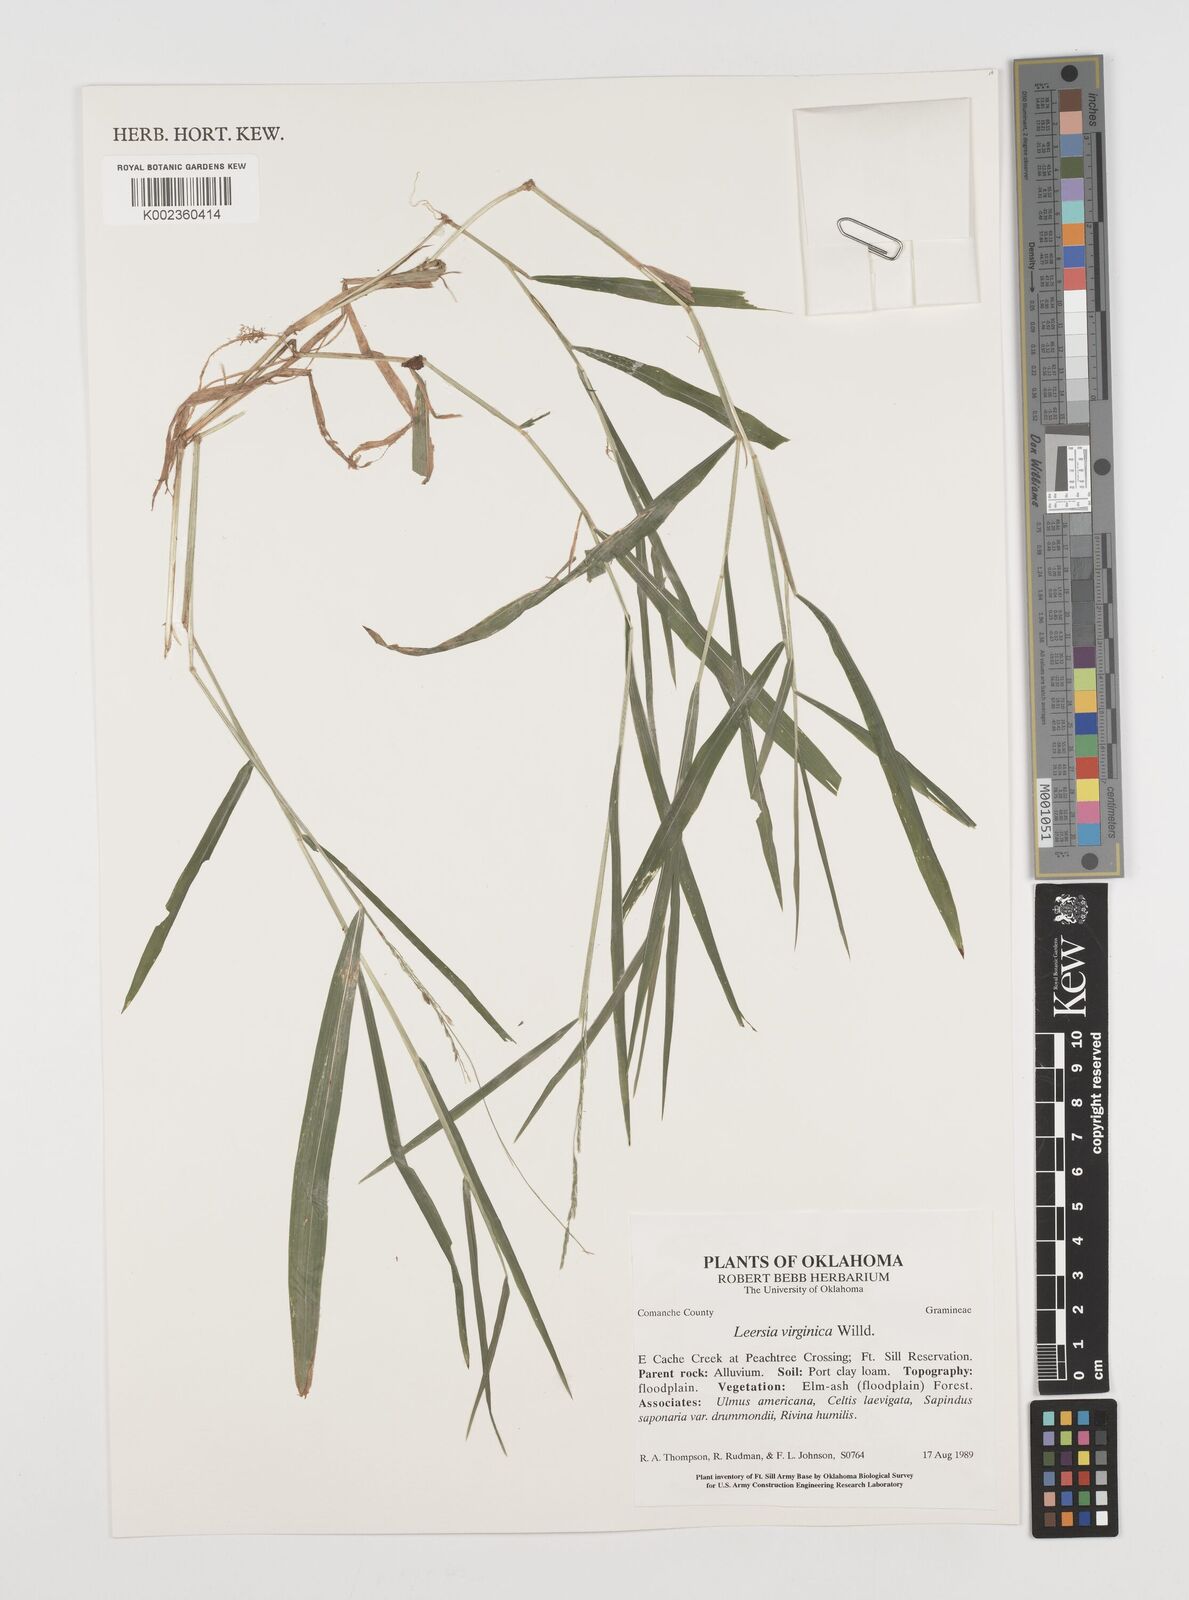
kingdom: Plantae
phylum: Tracheophyta
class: Liliopsida
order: Poales
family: Poaceae
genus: Leersia
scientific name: Leersia virginica
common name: White cutgrass
